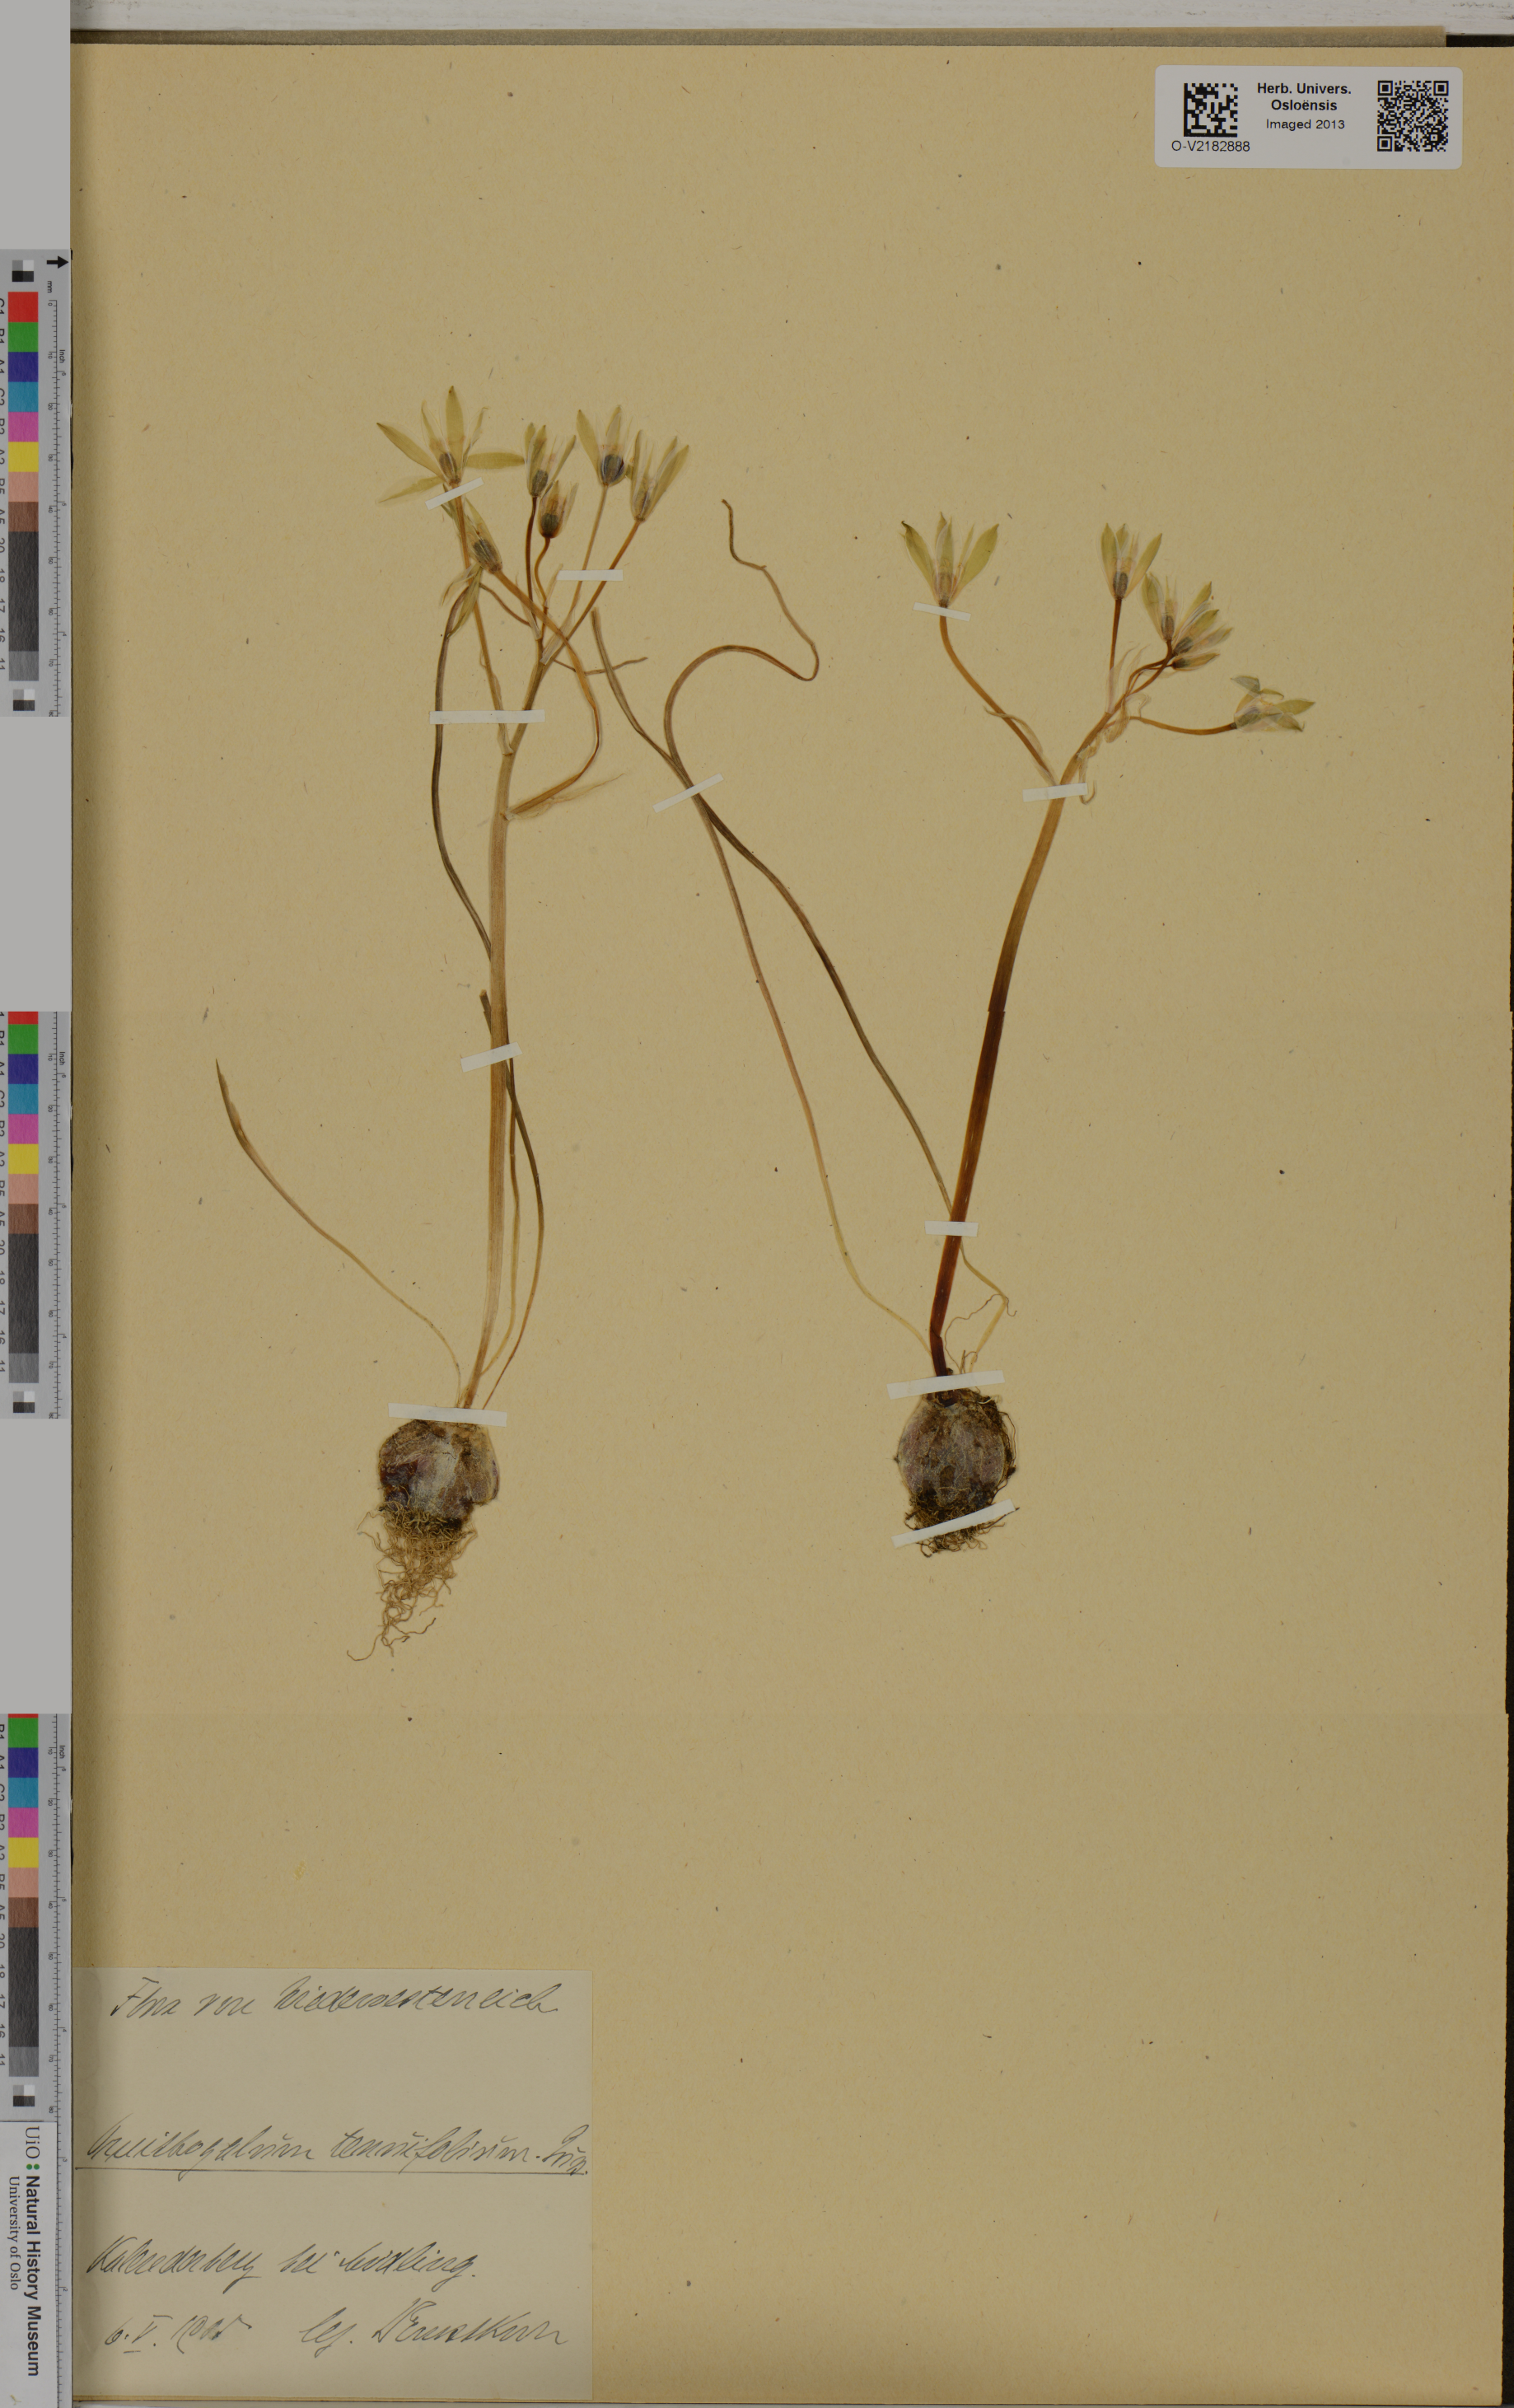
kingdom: Plantae
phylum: Tracheophyta
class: Liliopsida
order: Asparagales
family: Asparagaceae
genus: Ornithogalum
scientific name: Ornithogalum tenuifolium
